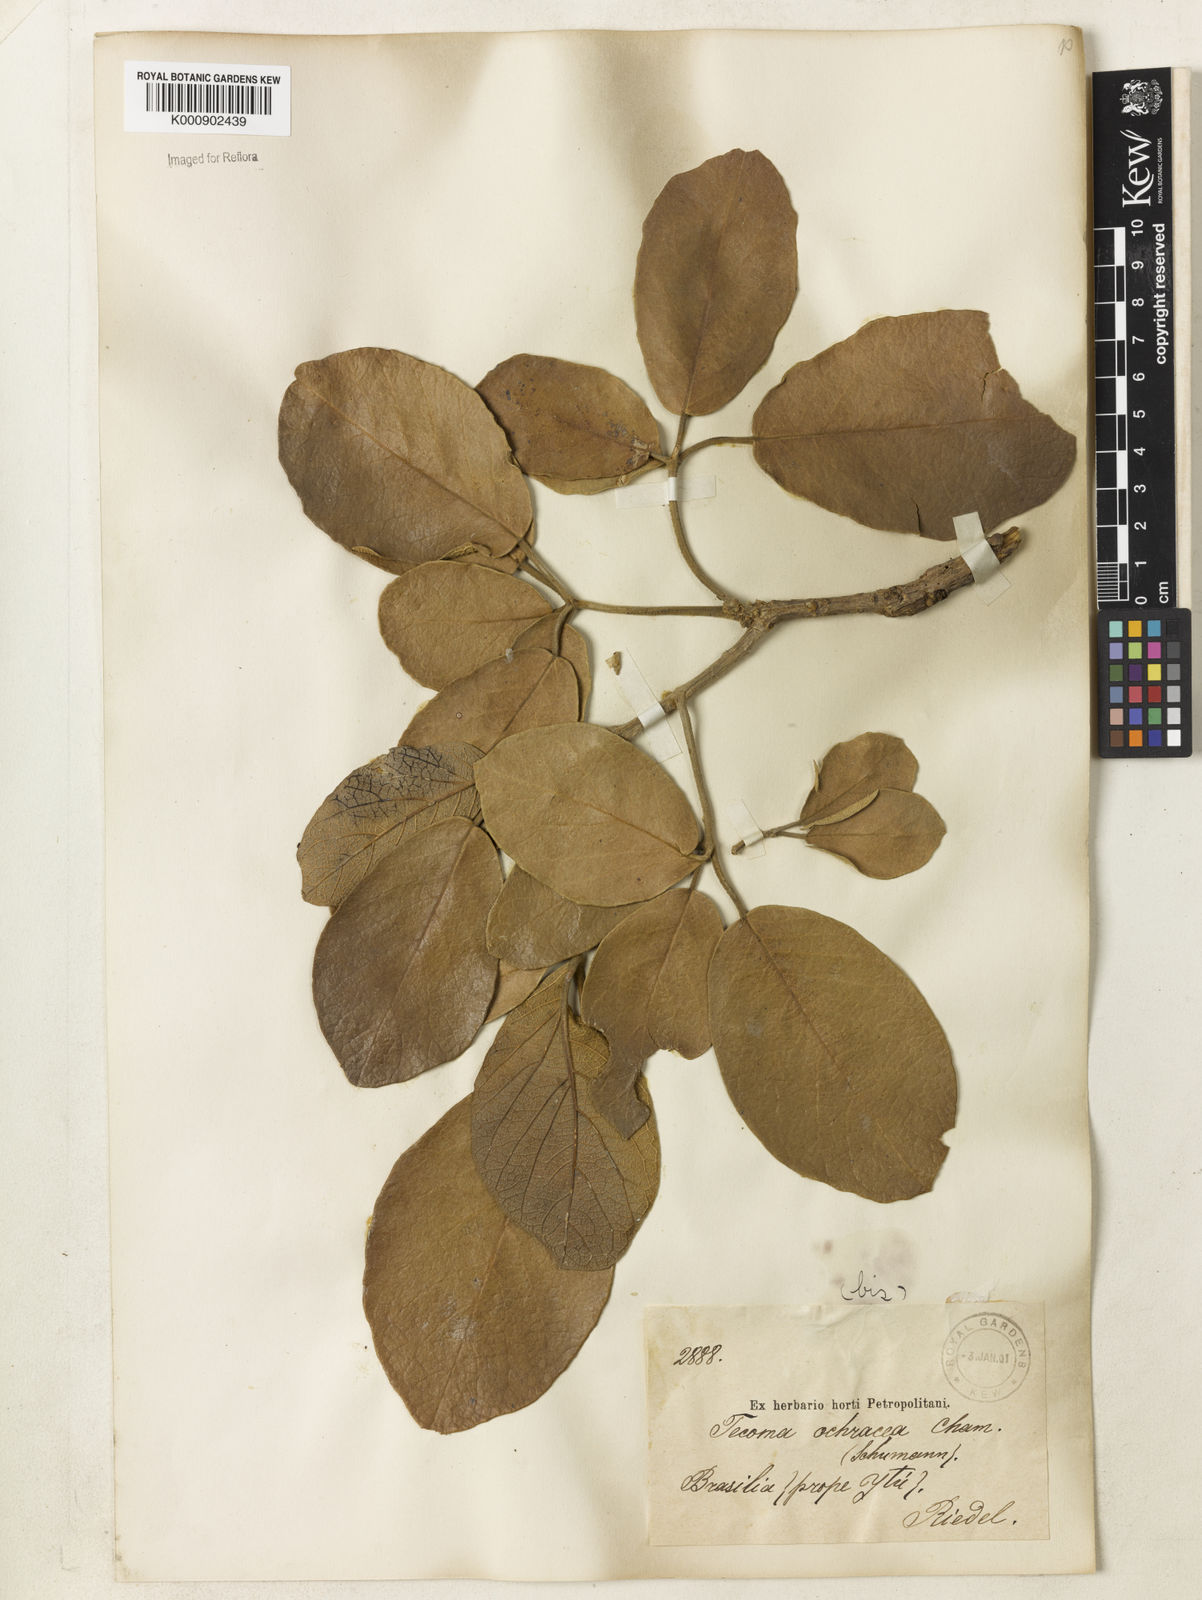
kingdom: Plantae
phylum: Tracheophyta
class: Magnoliopsida
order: Lamiales
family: Bignoniaceae
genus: Handroanthus
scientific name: Handroanthus ochraceus
